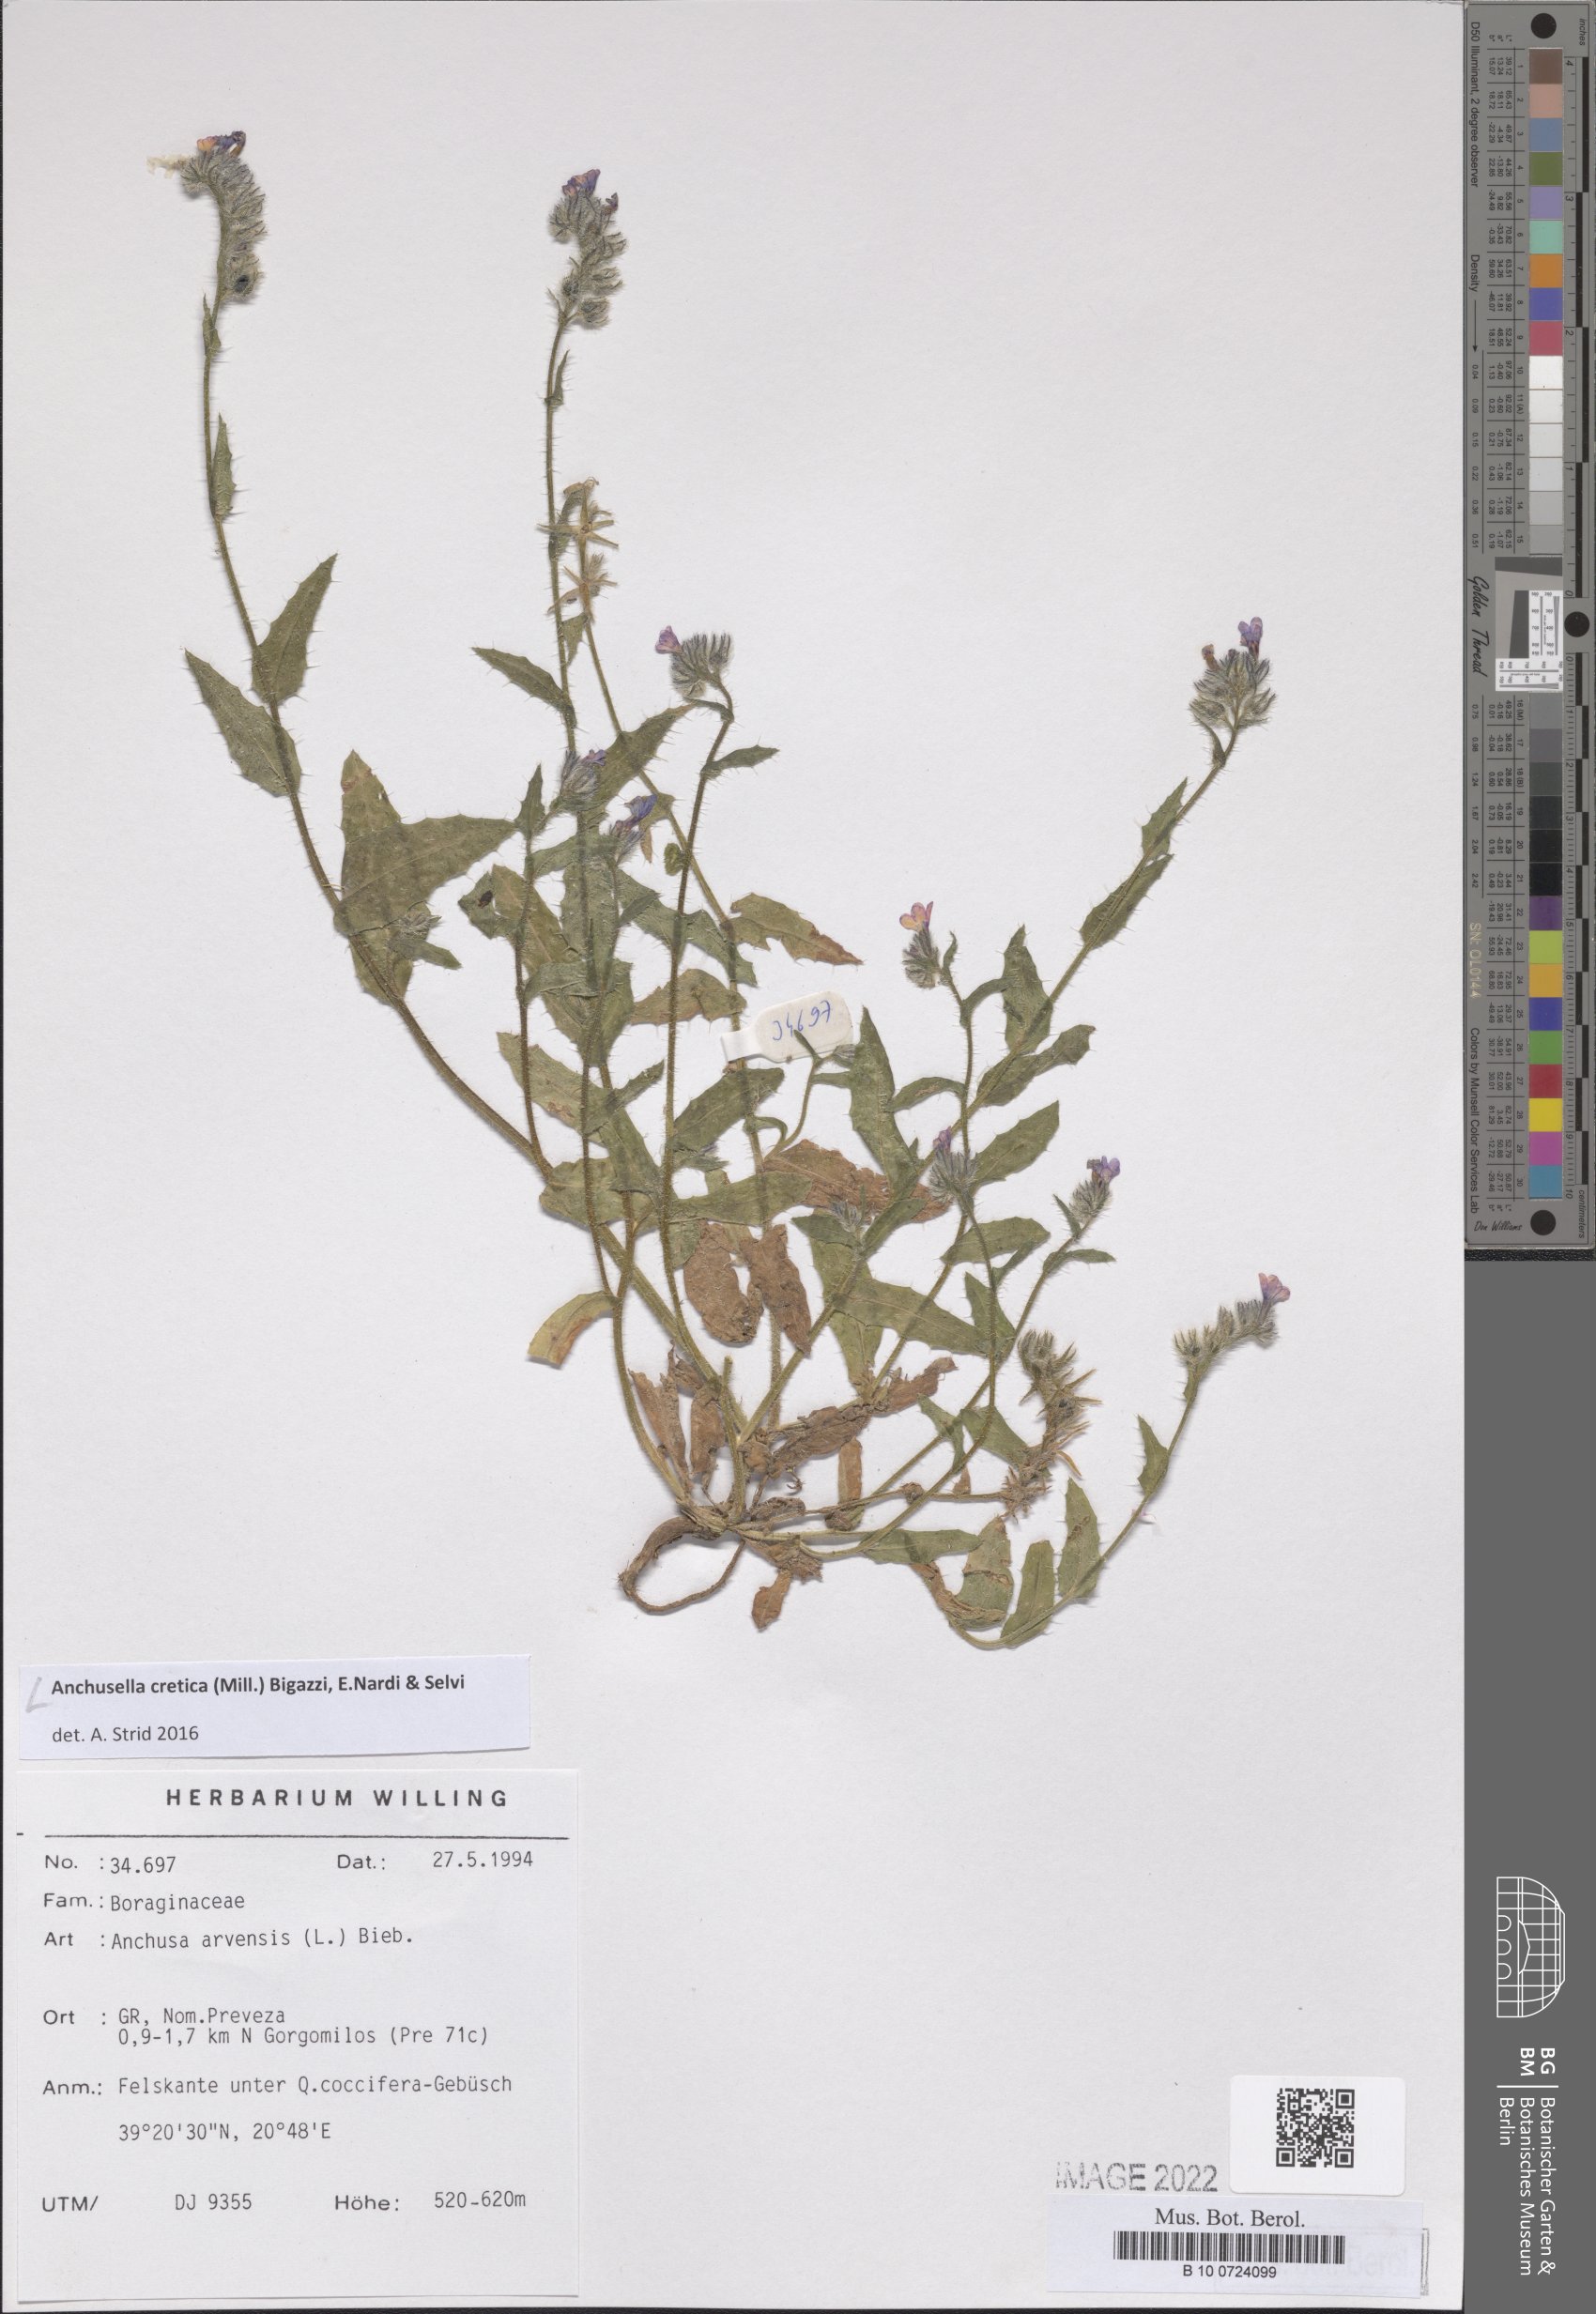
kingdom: Plantae
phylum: Tracheophyta
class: Magnoliopsida
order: Boraginales
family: Boraginaceae
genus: Anchusella
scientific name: Anchusella cretica
